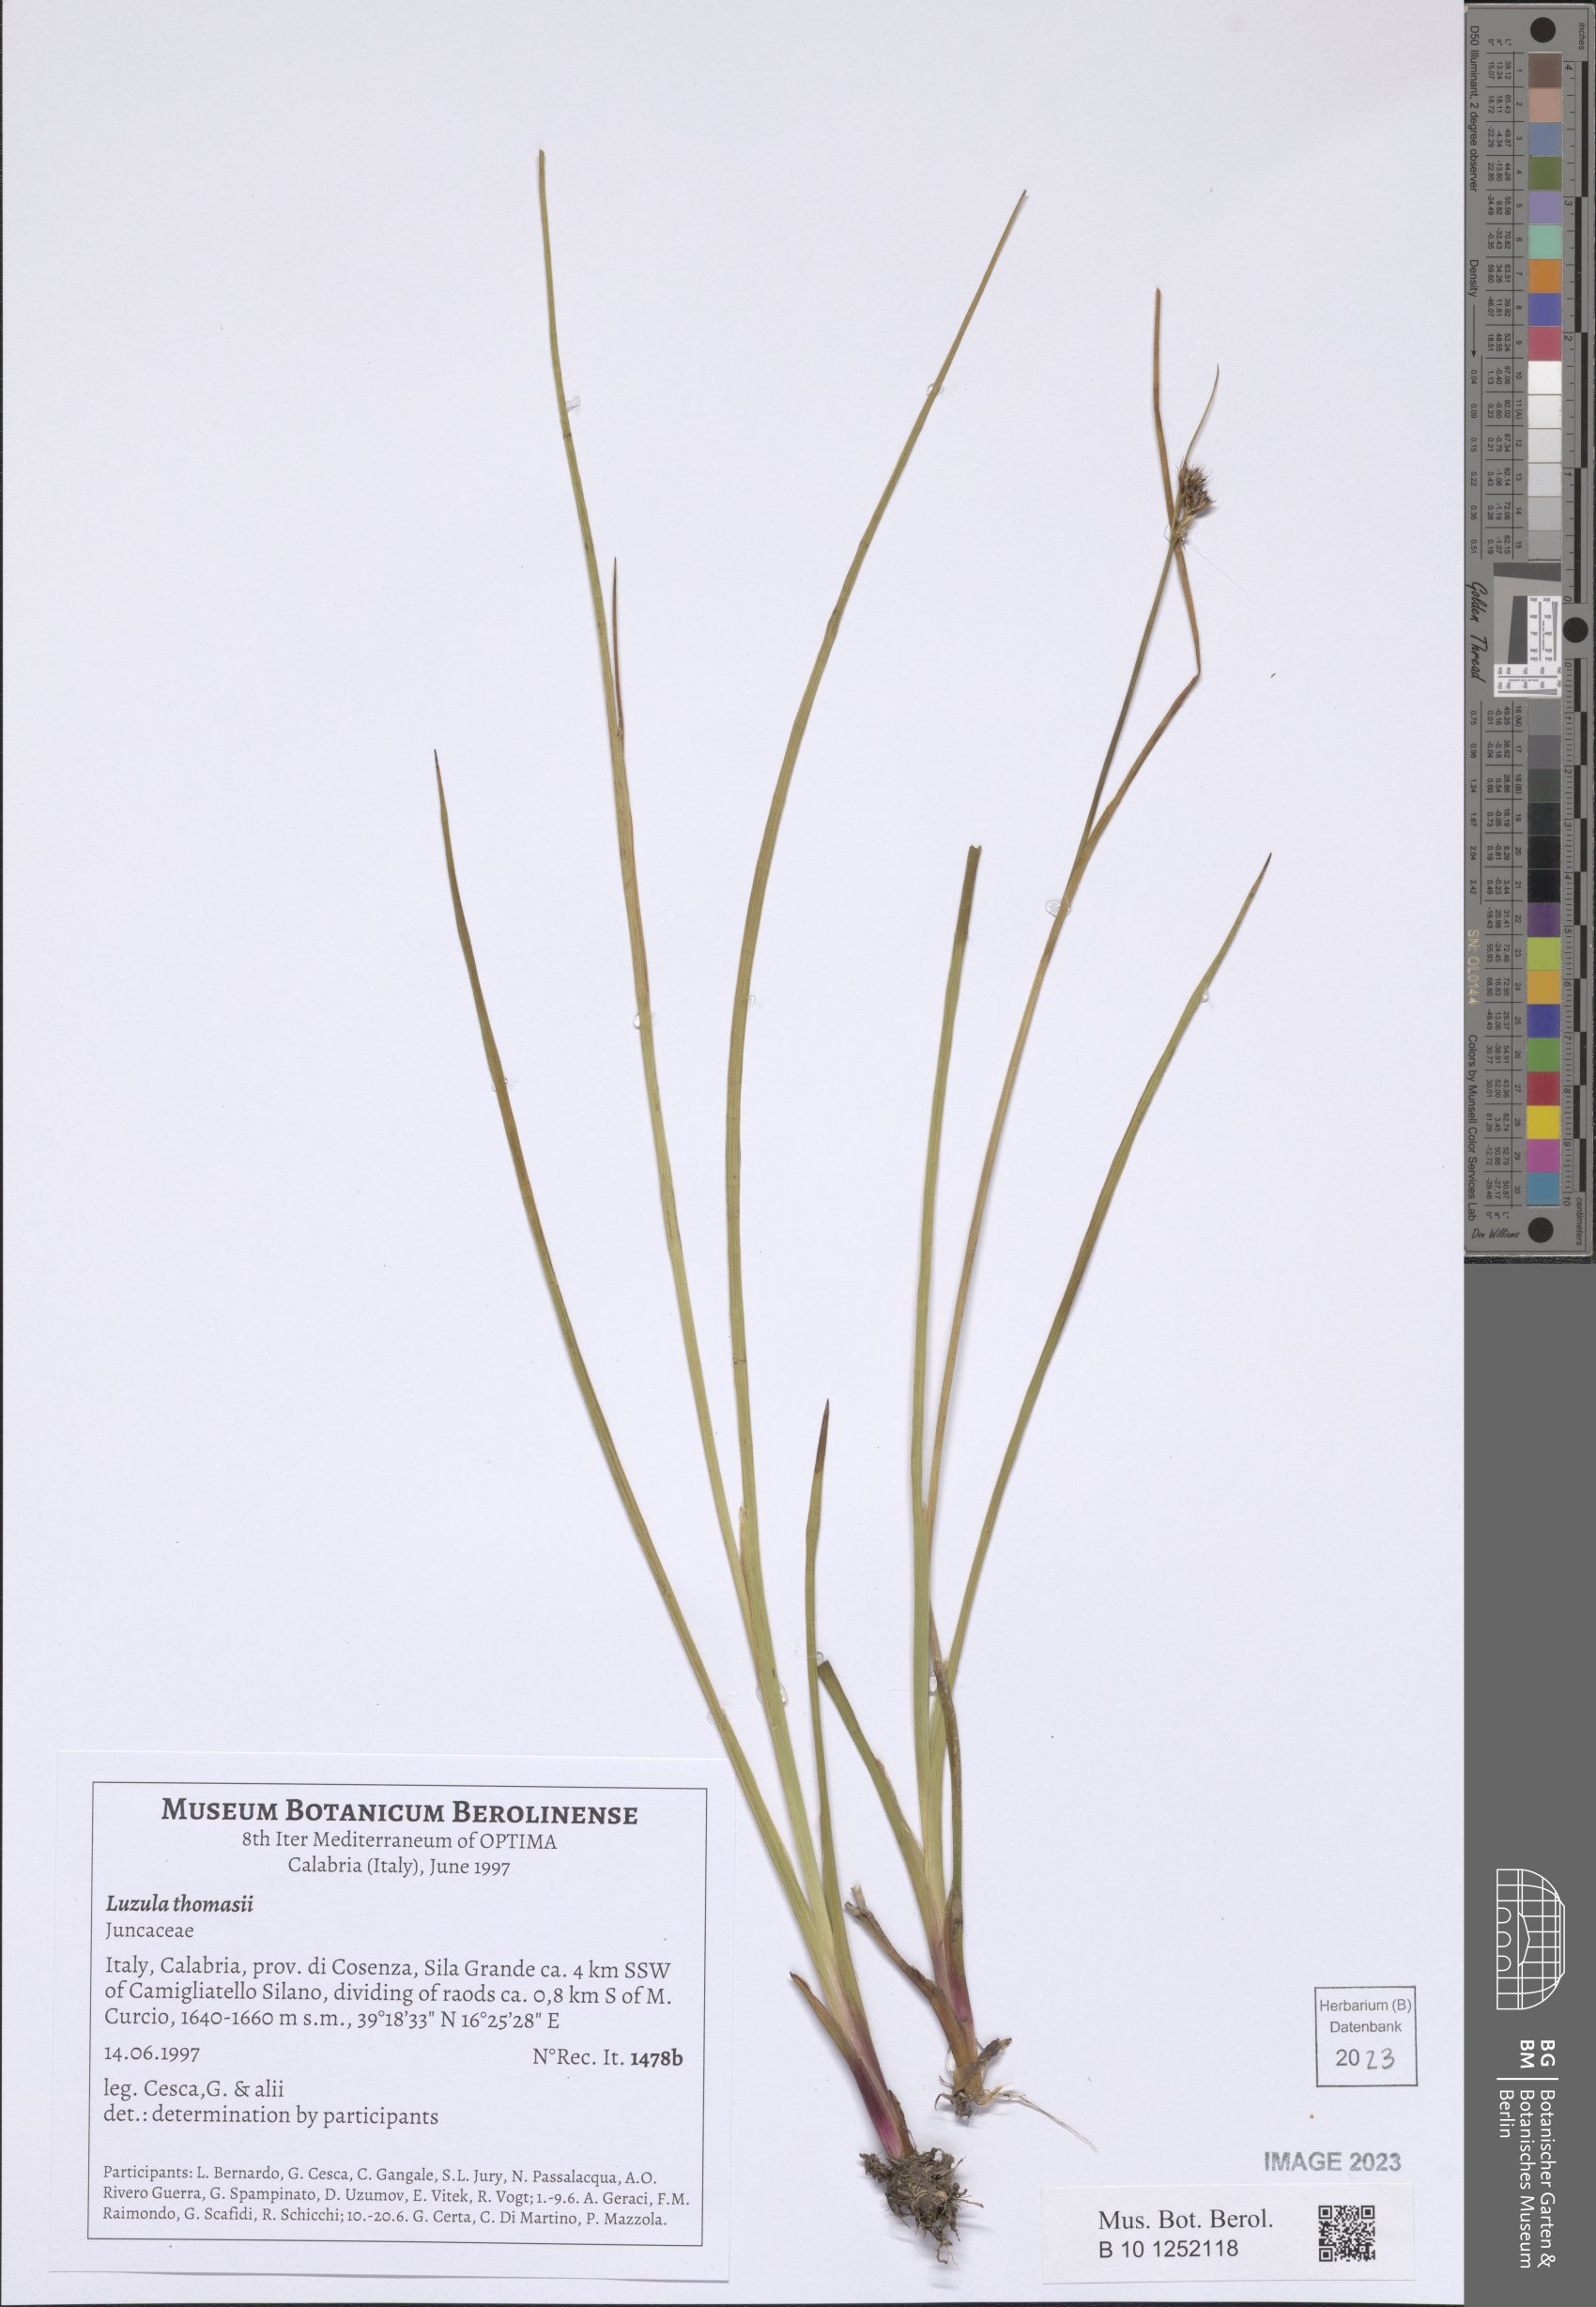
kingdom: Plantae
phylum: Tracheophyta
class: Liliopsida
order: Poales
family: Juncaceae
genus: Juncus
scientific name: Juncus thomasii
